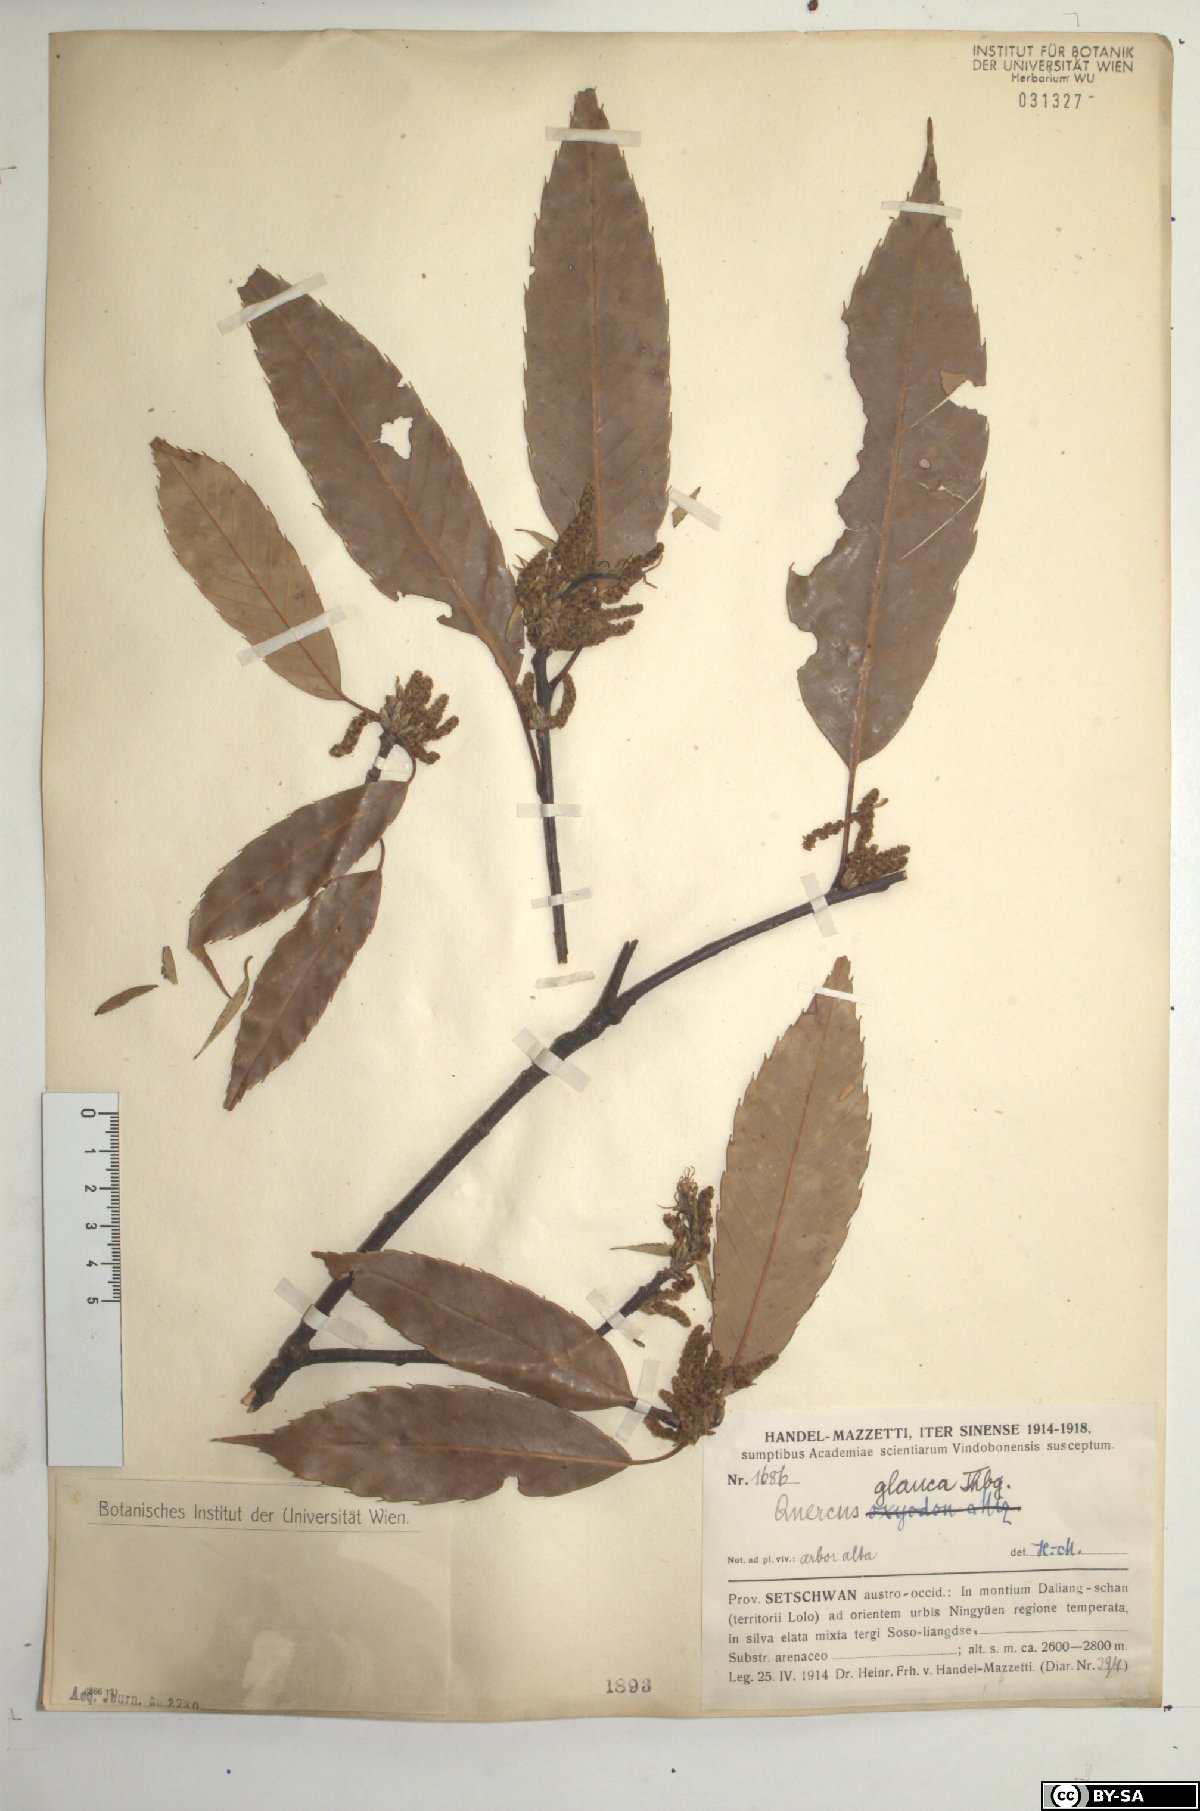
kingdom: Plantae
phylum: Tracheophyta
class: Magnoliopsida
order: Fagales
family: Fagaceae
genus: Quercus
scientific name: Quercus glauca
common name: Ring-cup oak
